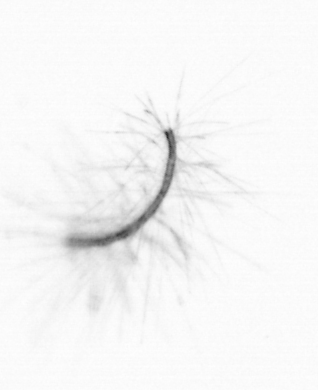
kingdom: Chromista
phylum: Ochrophyta
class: Bacillariophyceae
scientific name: Bacillariophyceae
